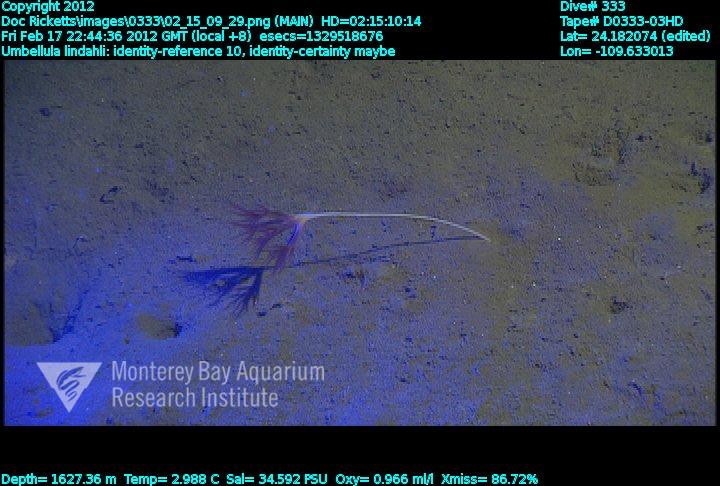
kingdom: Animalia
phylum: Cnidaria
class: Anthozoa
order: Scleralcyonacea
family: Umbellulidae
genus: Umbellula
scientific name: Umbellula lindahli
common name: Lindahl's droopy sea pen
